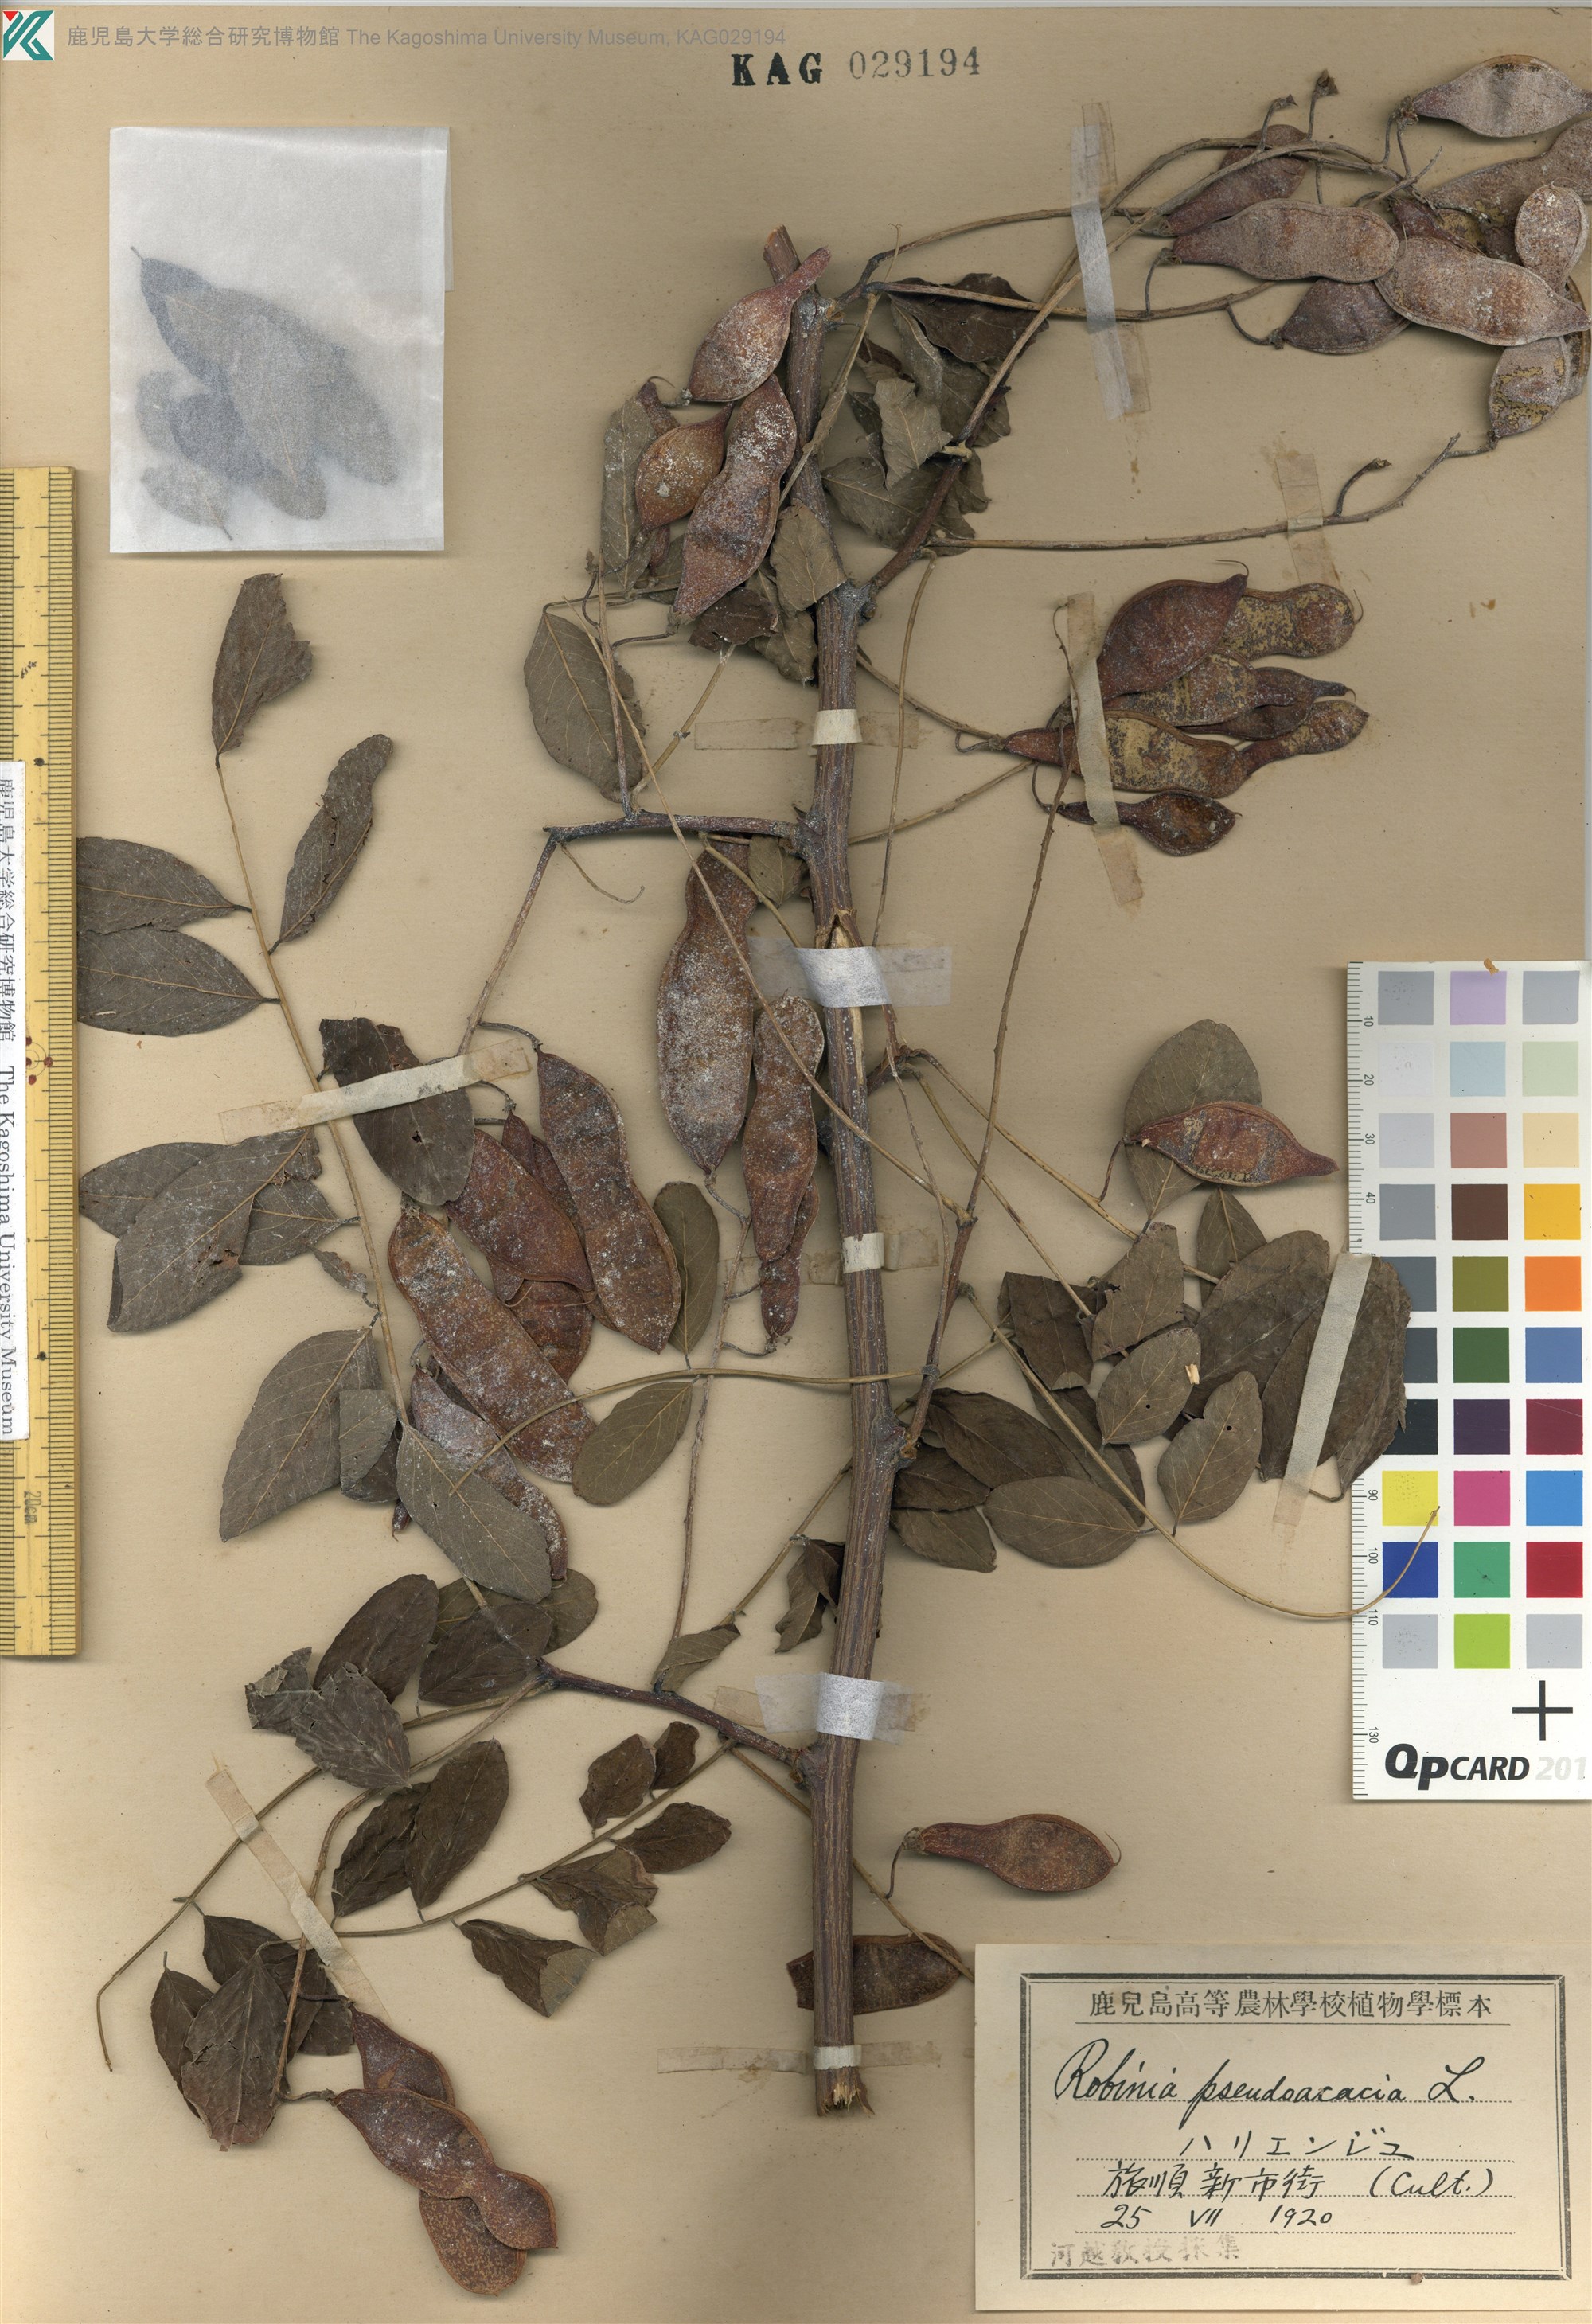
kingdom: Plantae
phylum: Tracheophyta
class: Magnoliopsida
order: Fabales
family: Fabaceae
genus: Robinia
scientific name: Robinia pseudoacacia
